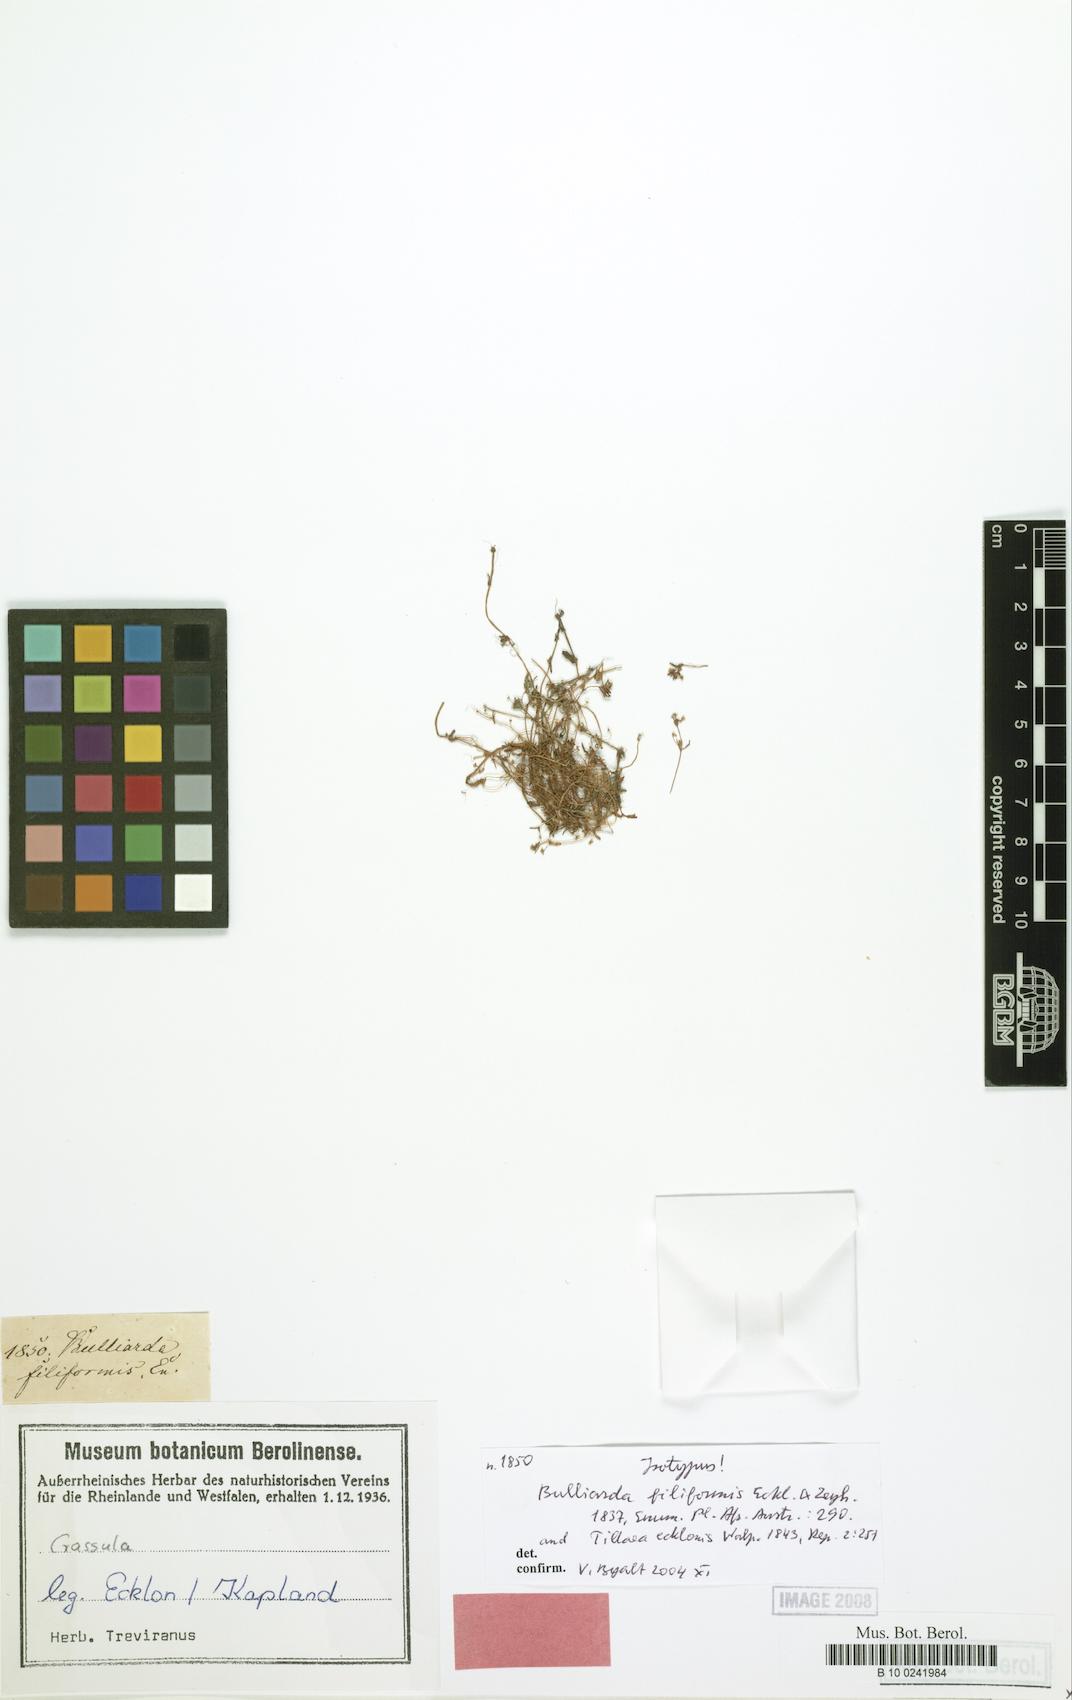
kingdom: Plantae
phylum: Tracheophyta
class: Magnoliopsida
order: Saxifragales
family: Crassulaceae
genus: Crassula
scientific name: Crassula filiformis
